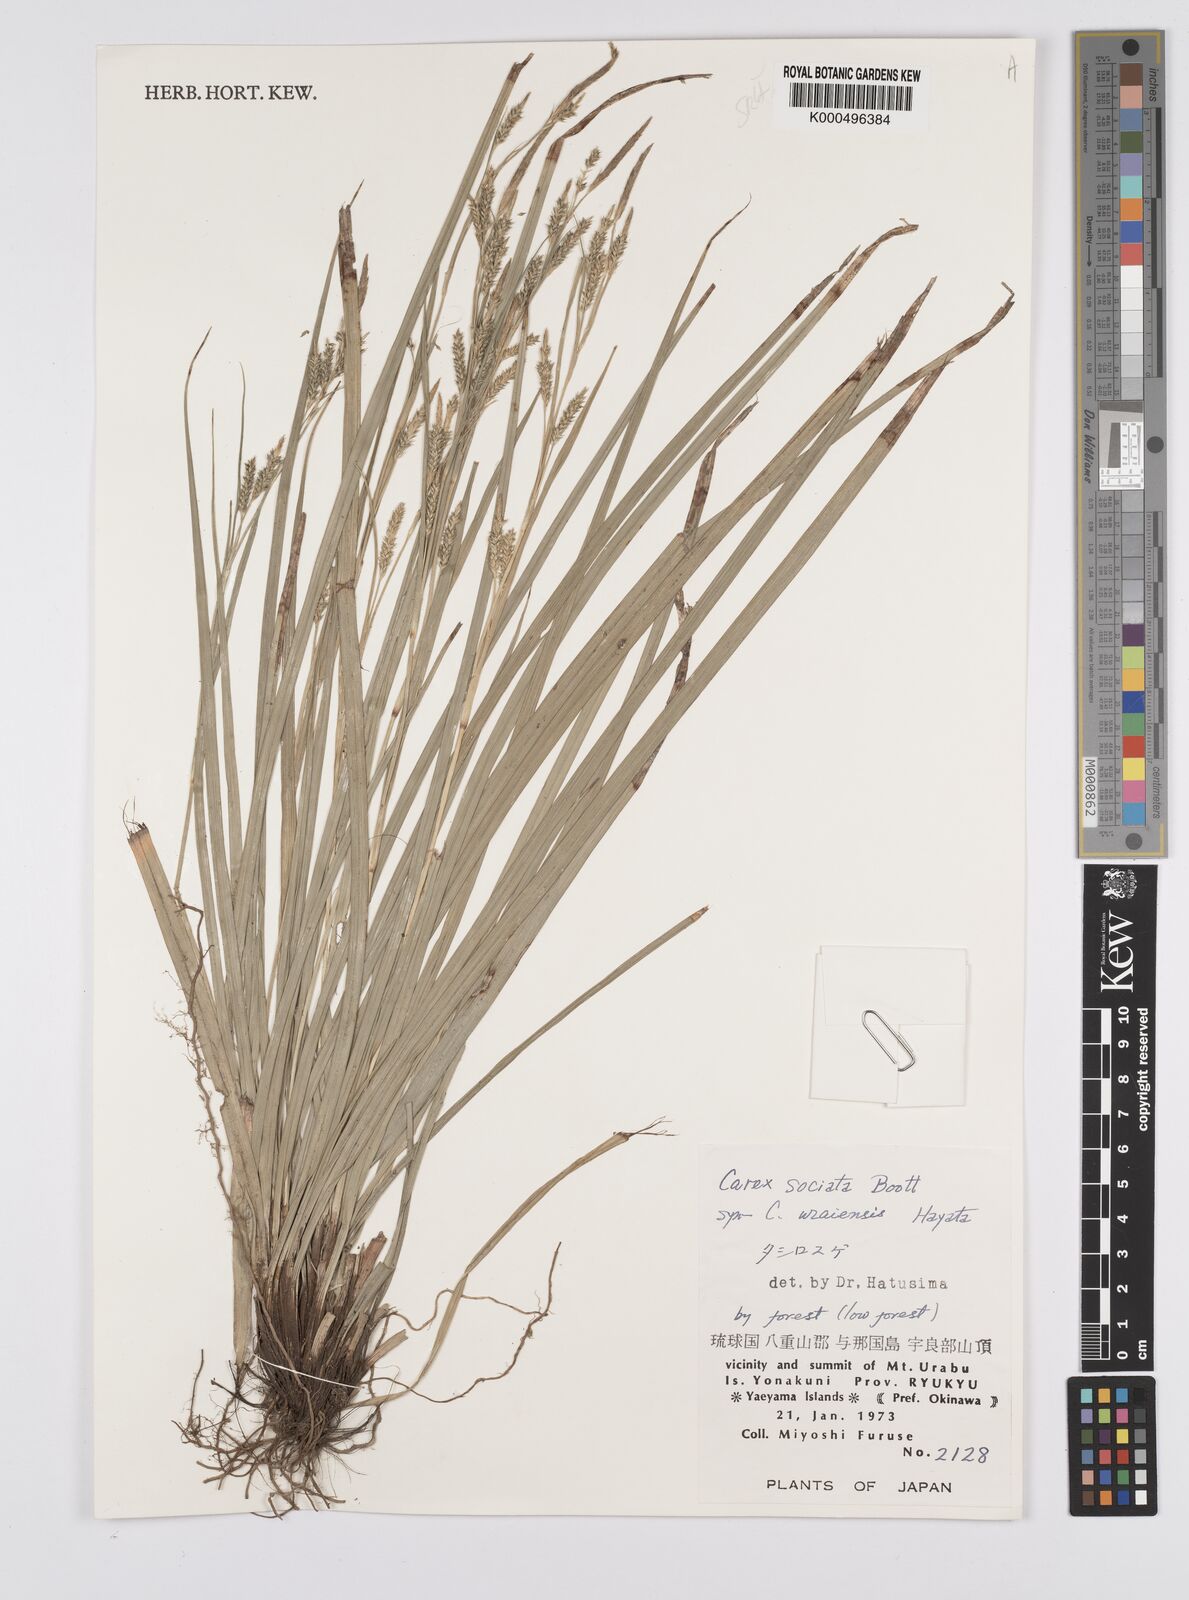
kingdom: Plantae
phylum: Tracheophyta
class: Liliopsida
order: Poales
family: Cyperaceae
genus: Carex
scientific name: Carex chinensis
